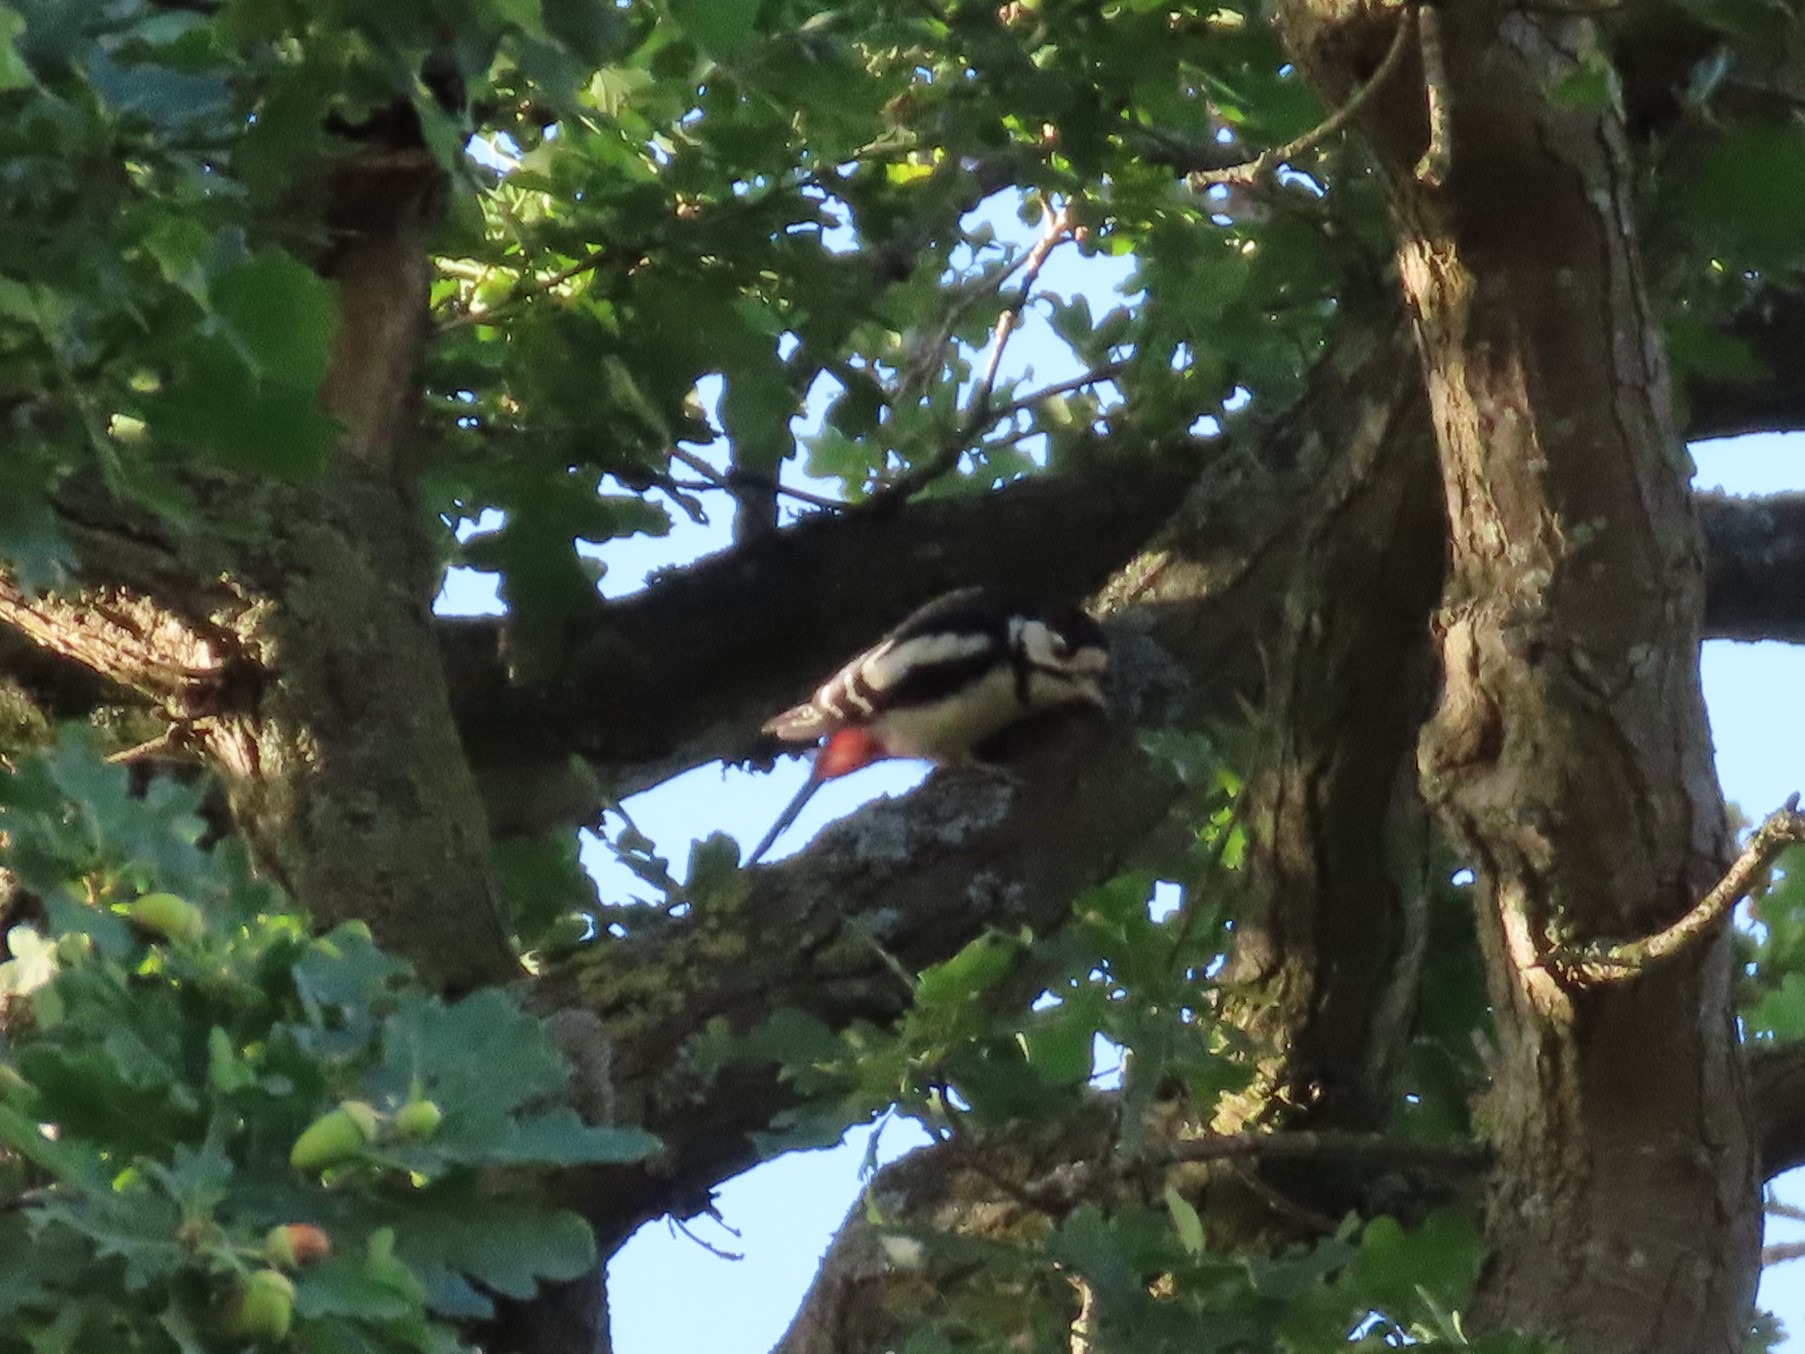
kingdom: Animalia
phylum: Chordata
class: Aves
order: Piciformes
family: Picidae
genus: Dendrocopos
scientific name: Dendrocopos major
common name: Stor flagspætte
